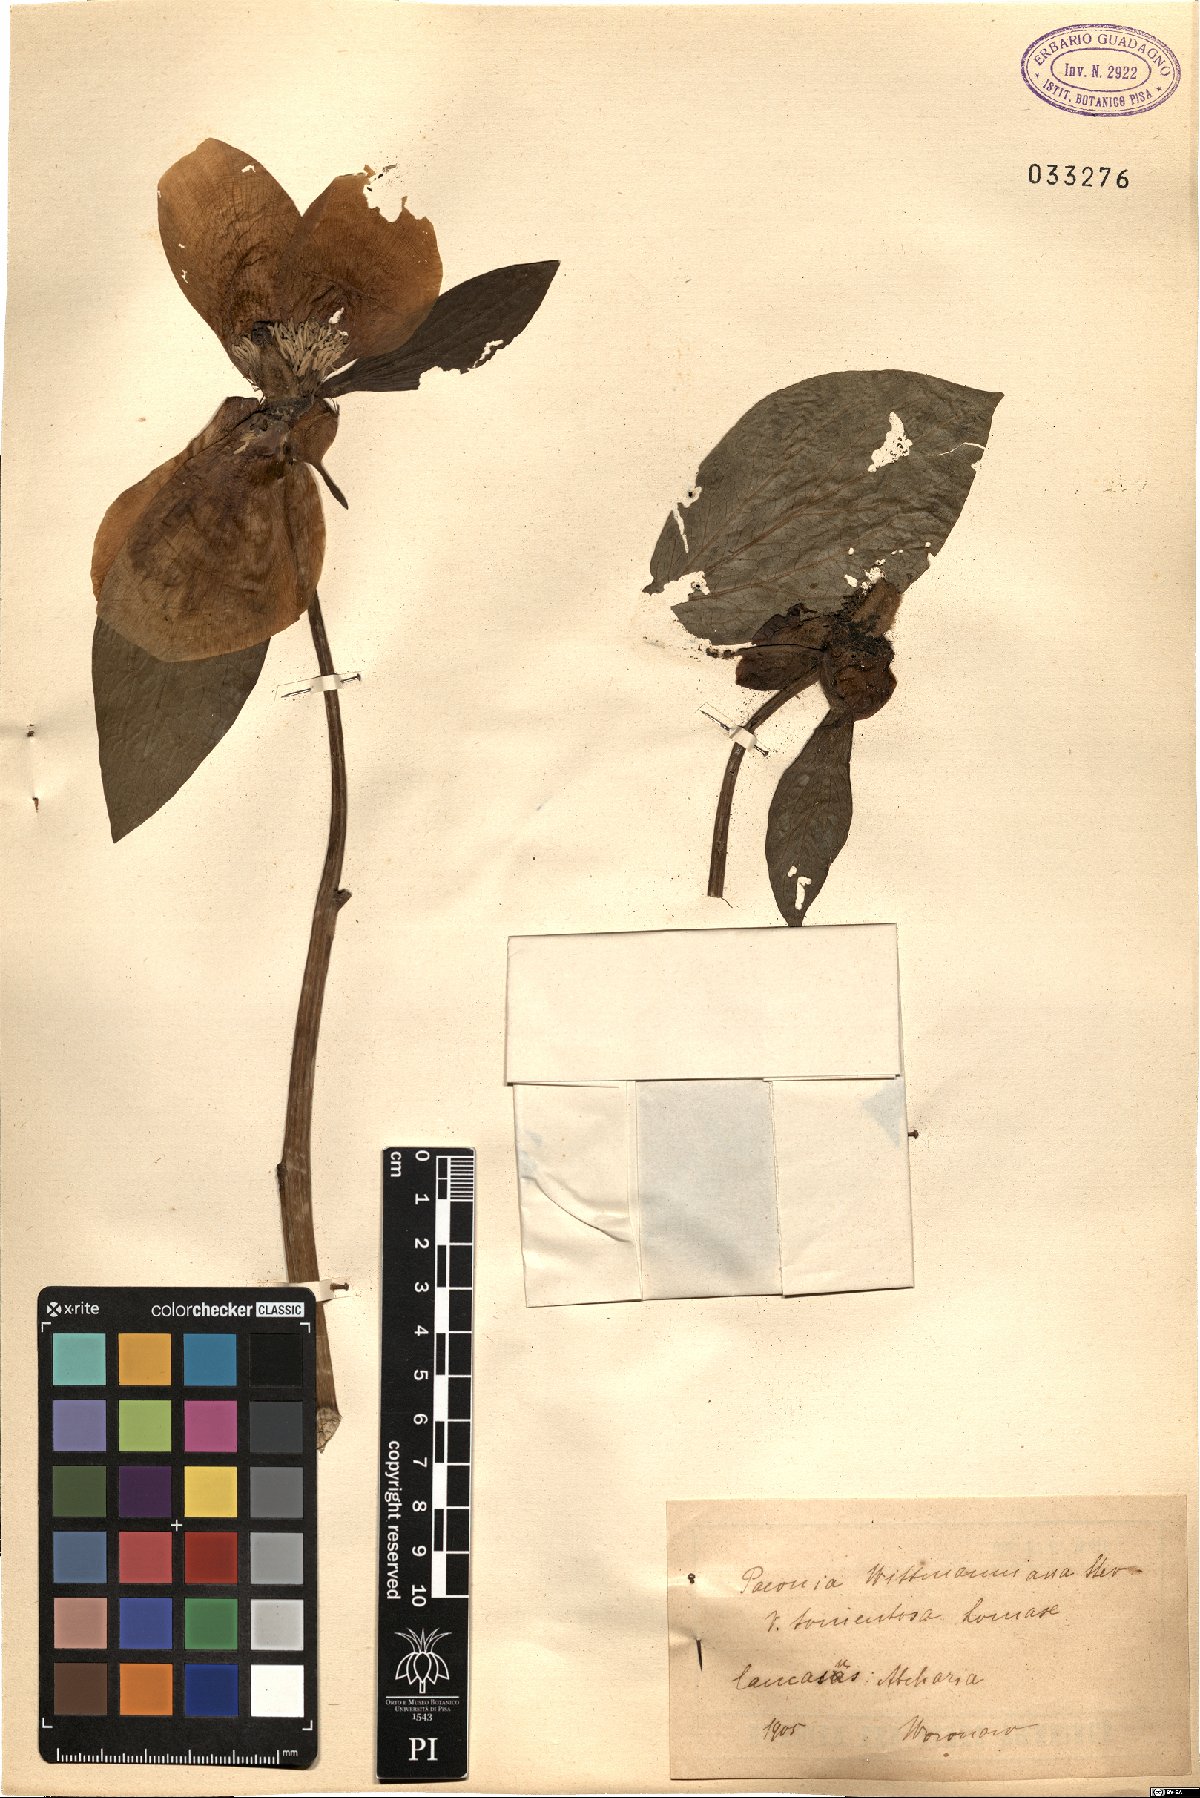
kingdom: Plantae
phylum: Tracheophyta
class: Magnoliopsida
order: Saxifragales
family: Paeoniaceae
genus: Paeonia
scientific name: Paeonia wittmanniana
